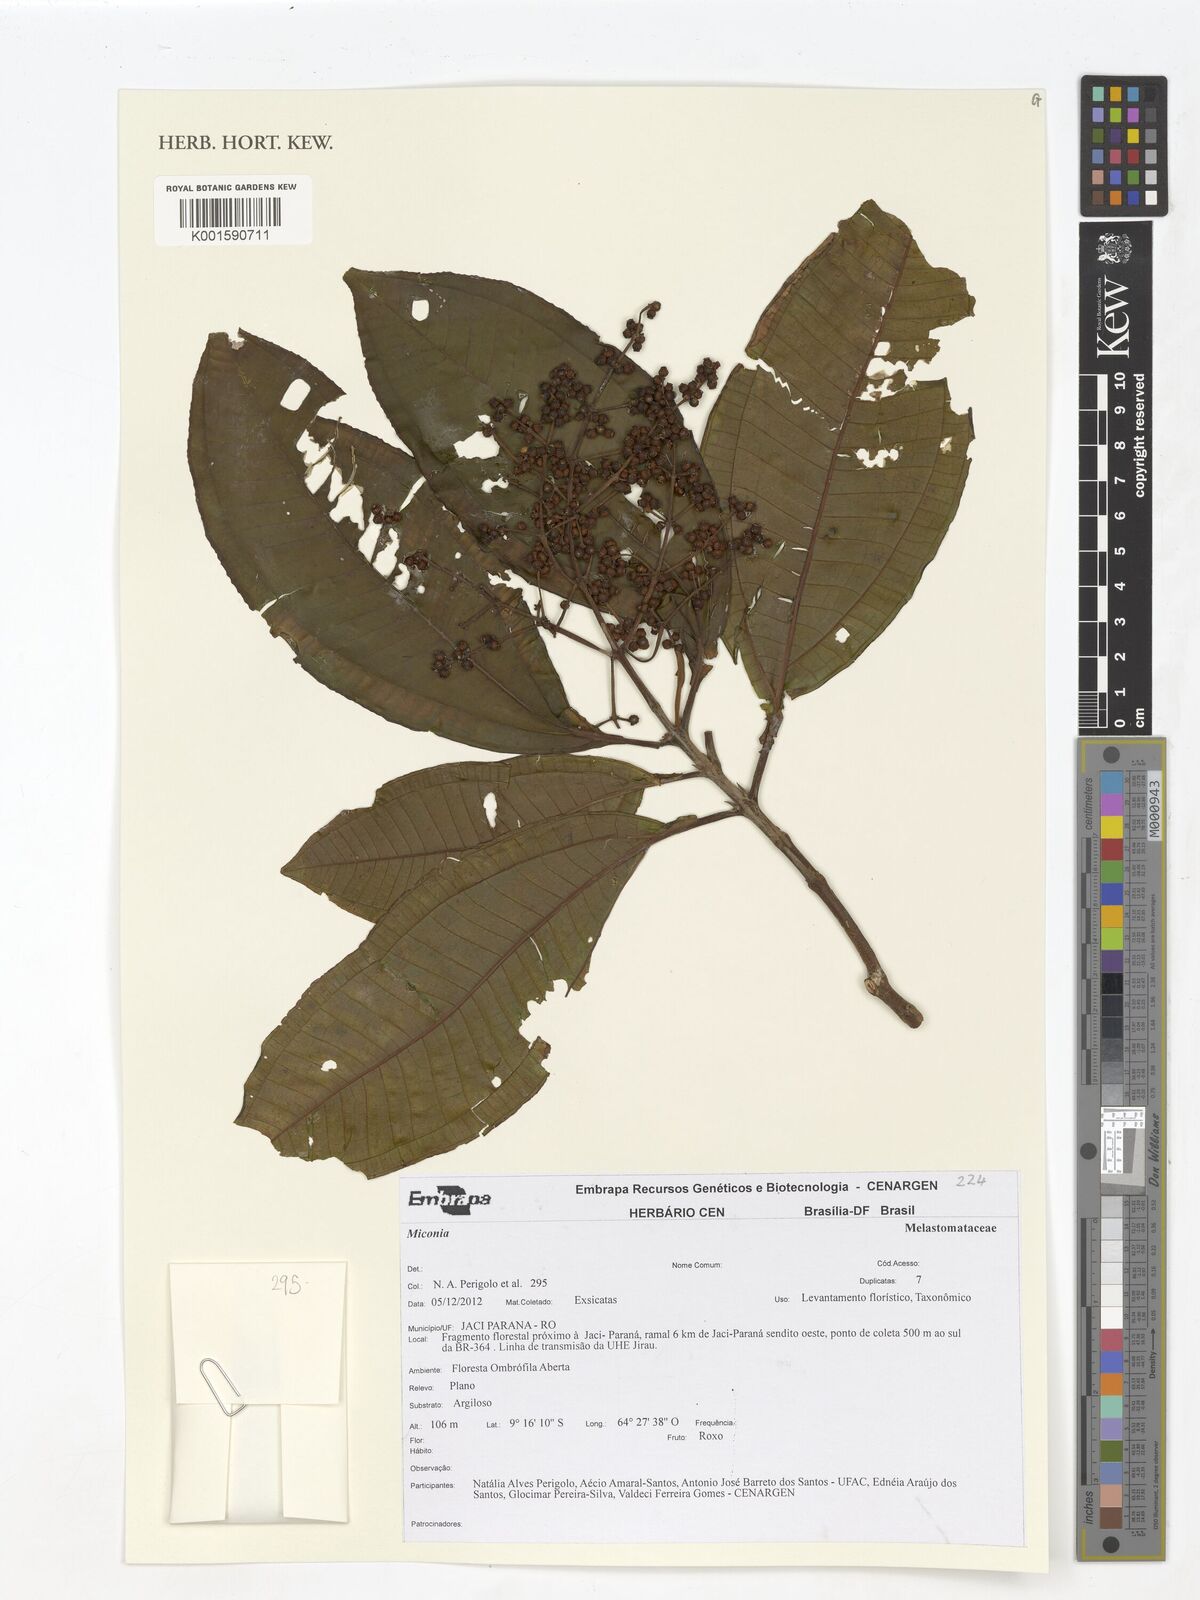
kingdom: Plantae
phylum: Tracheophyta
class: Magnoliopsida
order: Myrtales
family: Melastomataceae
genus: Miconia
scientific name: Miconia
